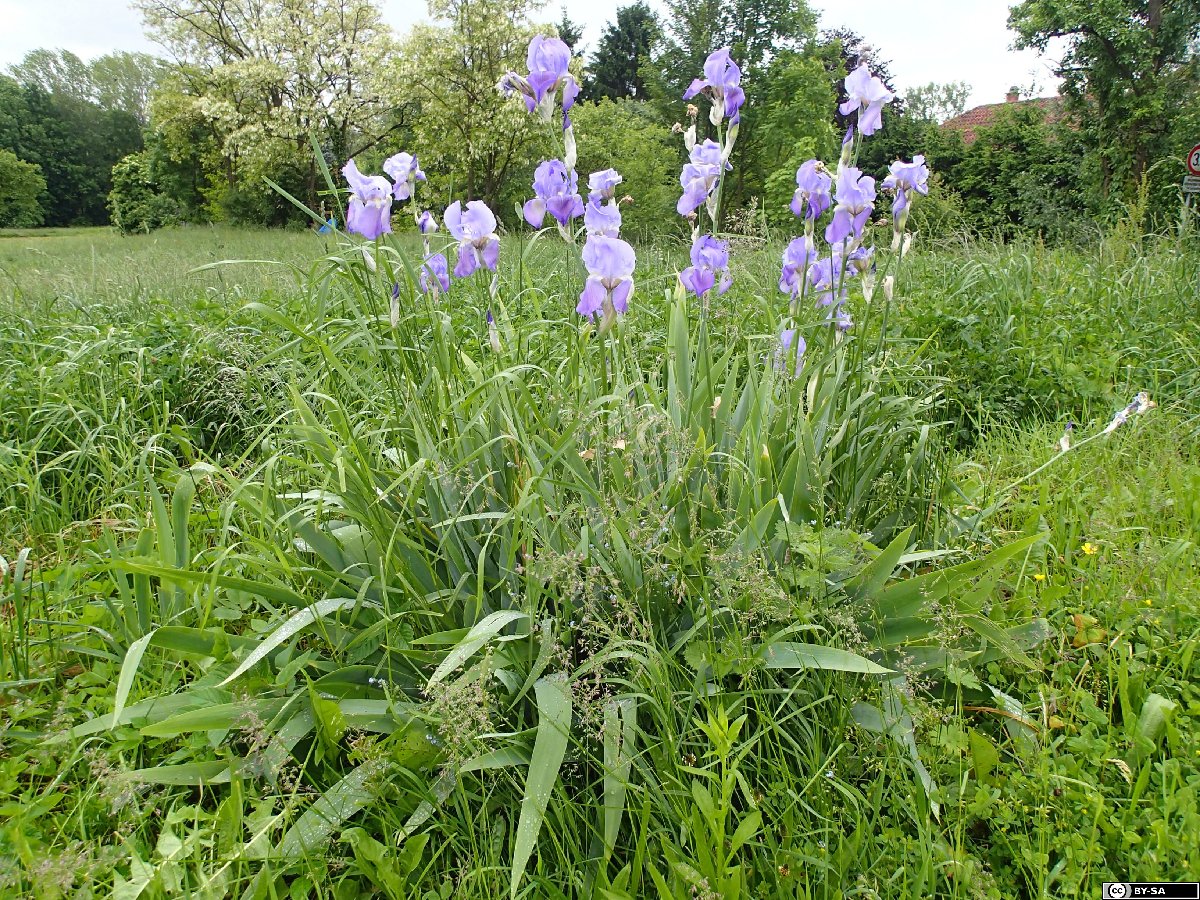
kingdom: Plantae
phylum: Tracheophyta
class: Liliopsida
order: Asparagales
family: Iridaceae
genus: Iris
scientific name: Iris pallida
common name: Sweet iris
